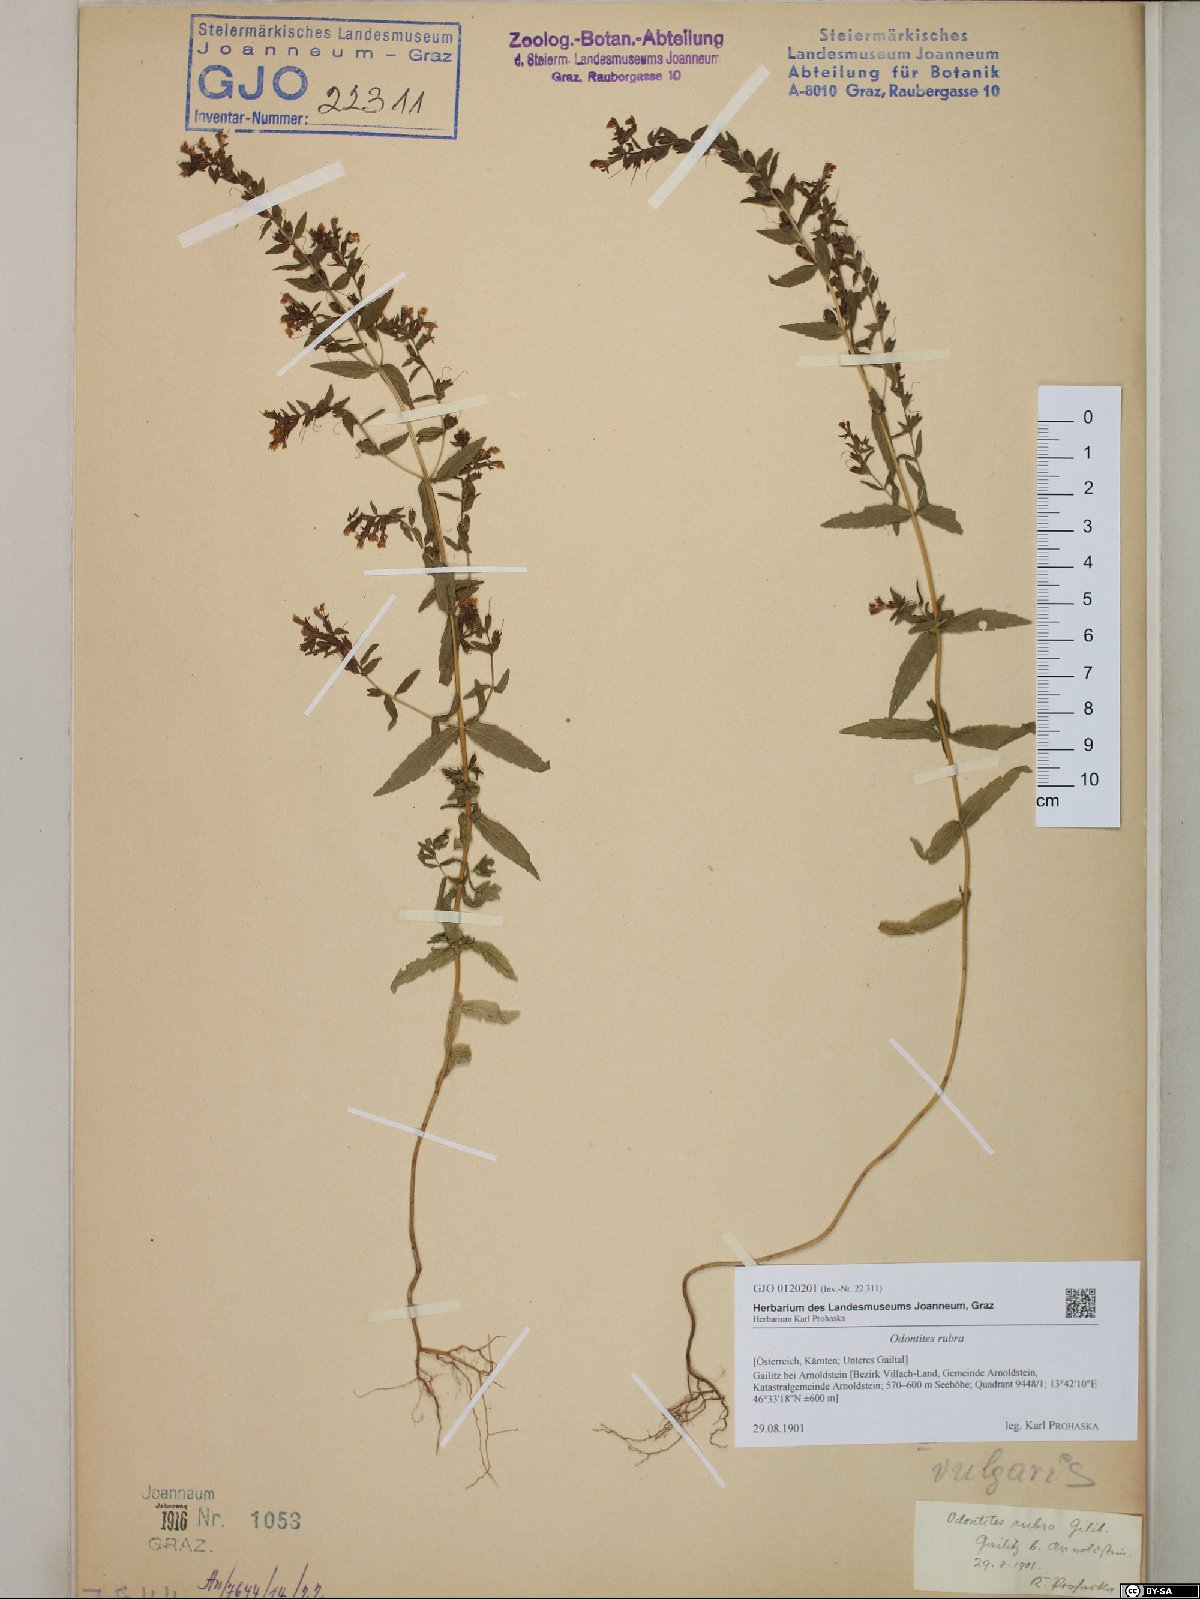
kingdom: Plantae
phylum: Tracheophyta
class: Magnoliopsida
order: Lamiales
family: Orobanchaceae
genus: Odontites
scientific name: Odontites vulgaris
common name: Broomrape
